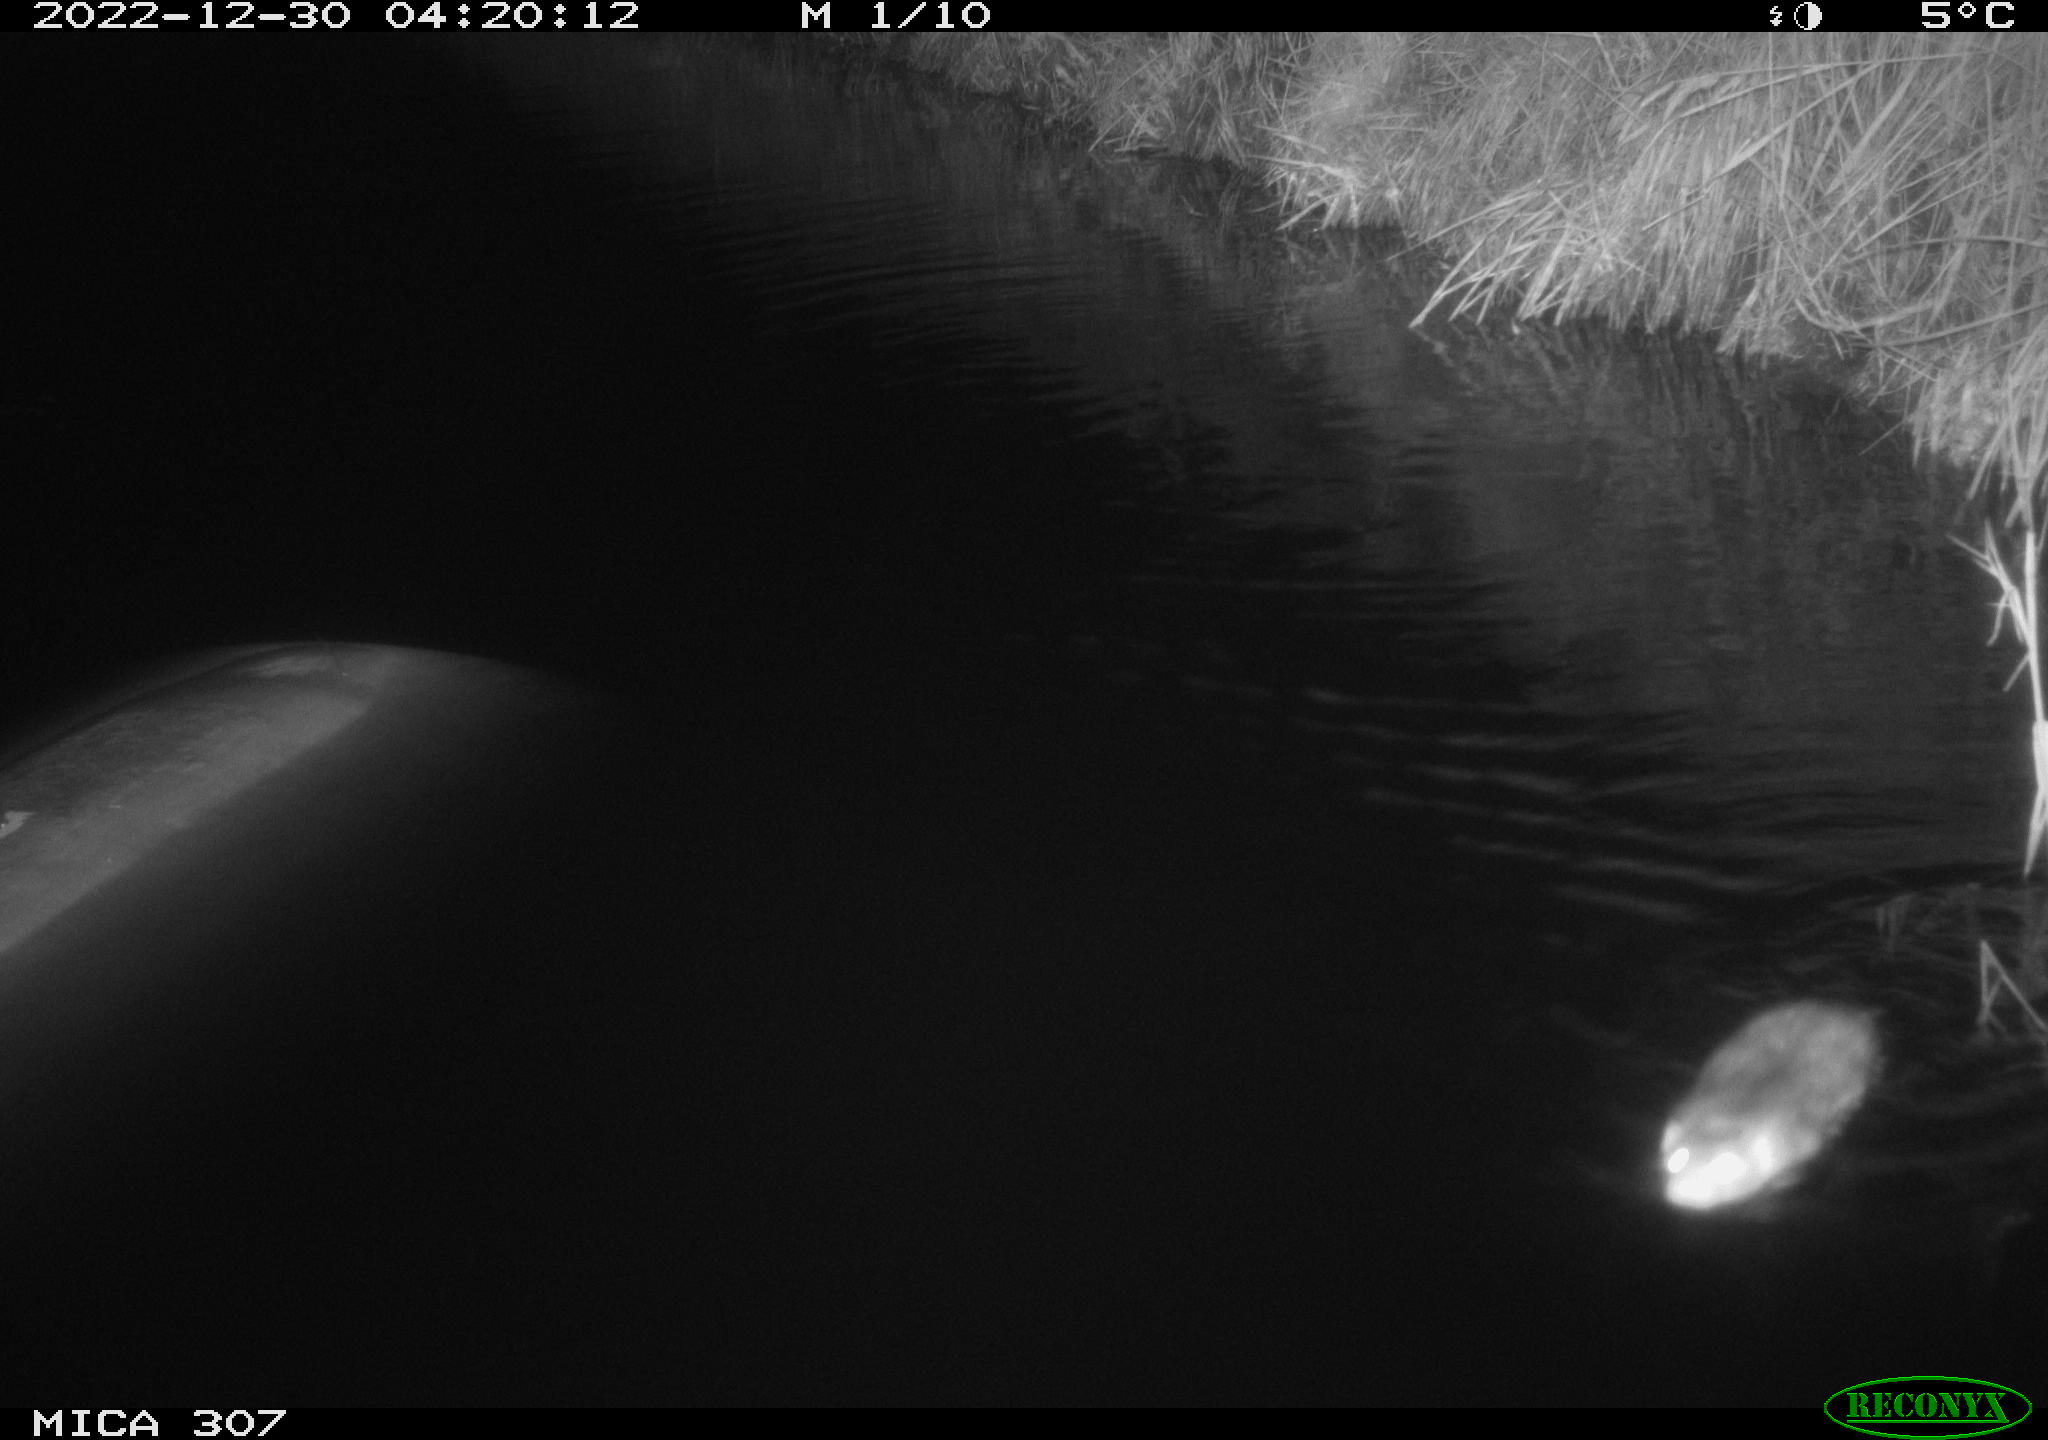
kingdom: Animalia
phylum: Chordata
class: Mammalia
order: Rodentia
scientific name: Rodentia
